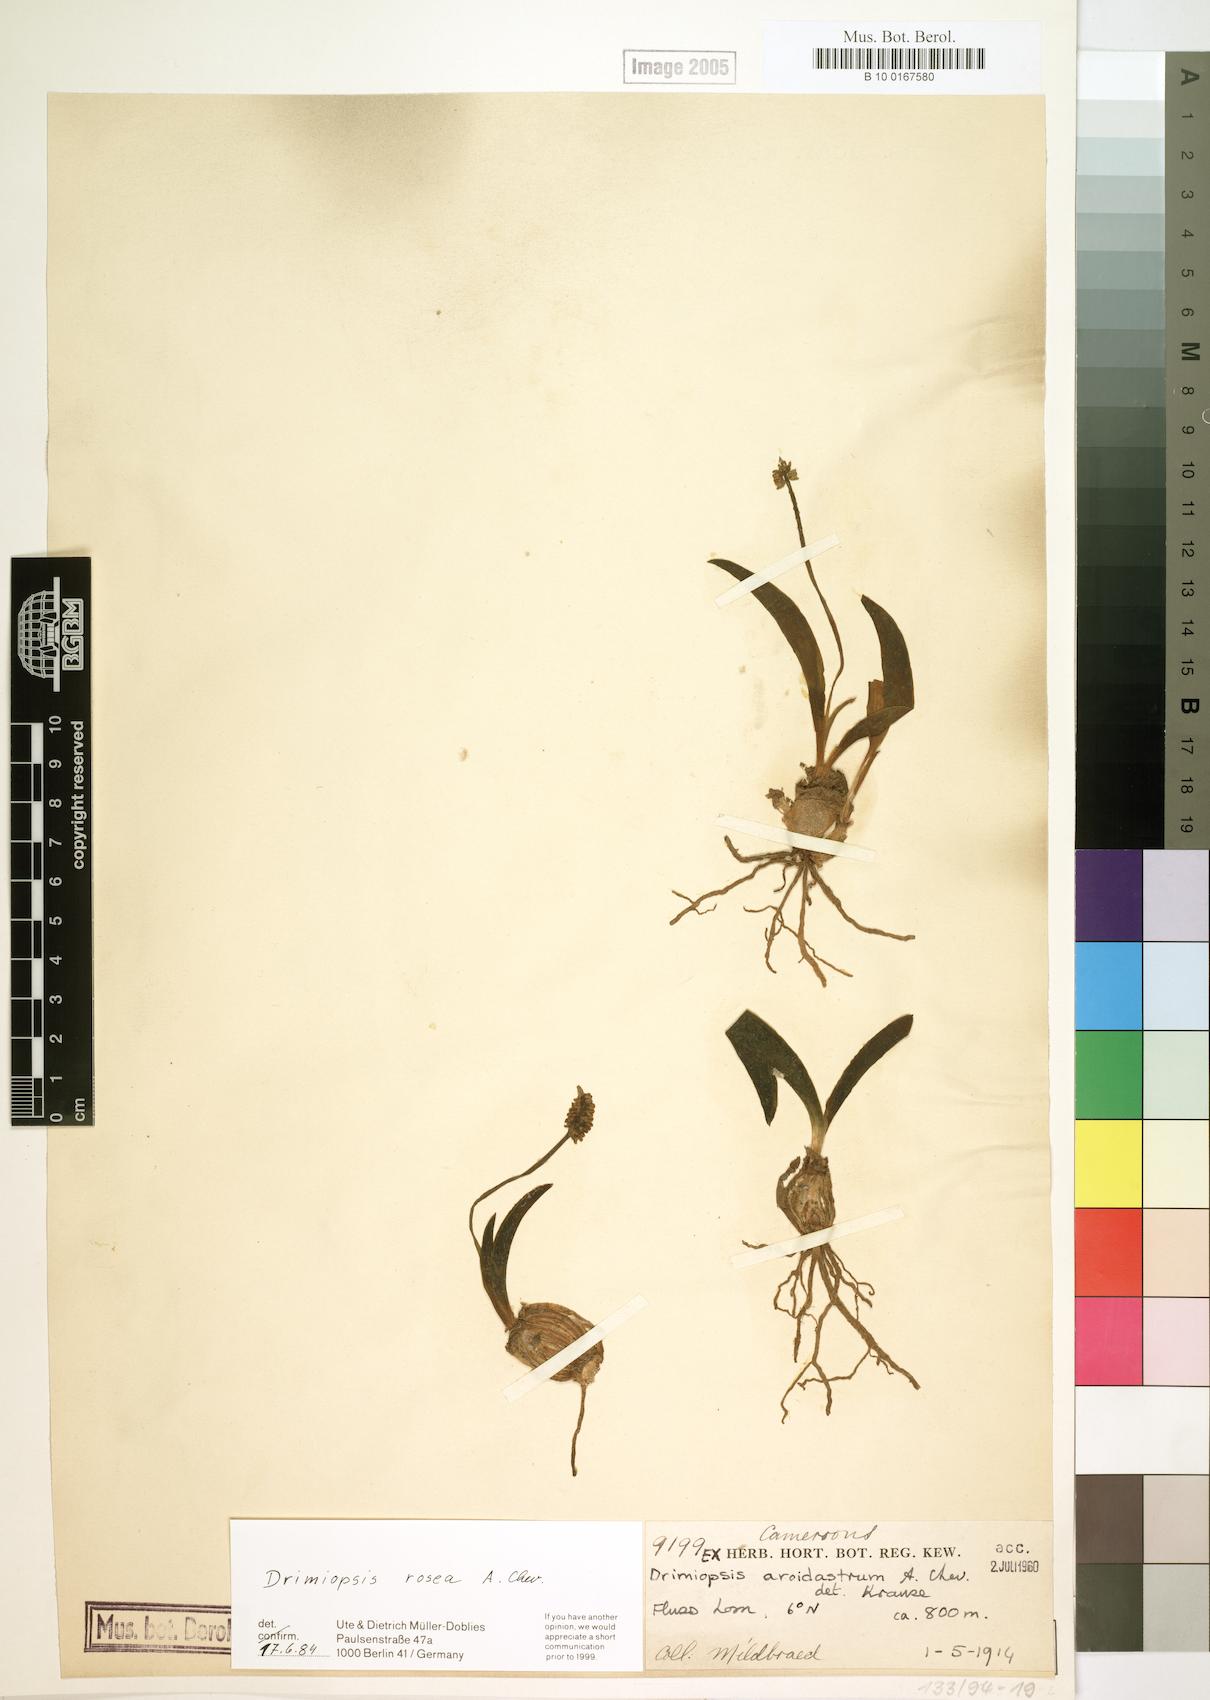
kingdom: Plantae
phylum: Tracheophyta
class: Liliopsida
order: Asparagales
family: Asparagaceae
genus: Drimiopsis
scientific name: Drimiopsis rosea
